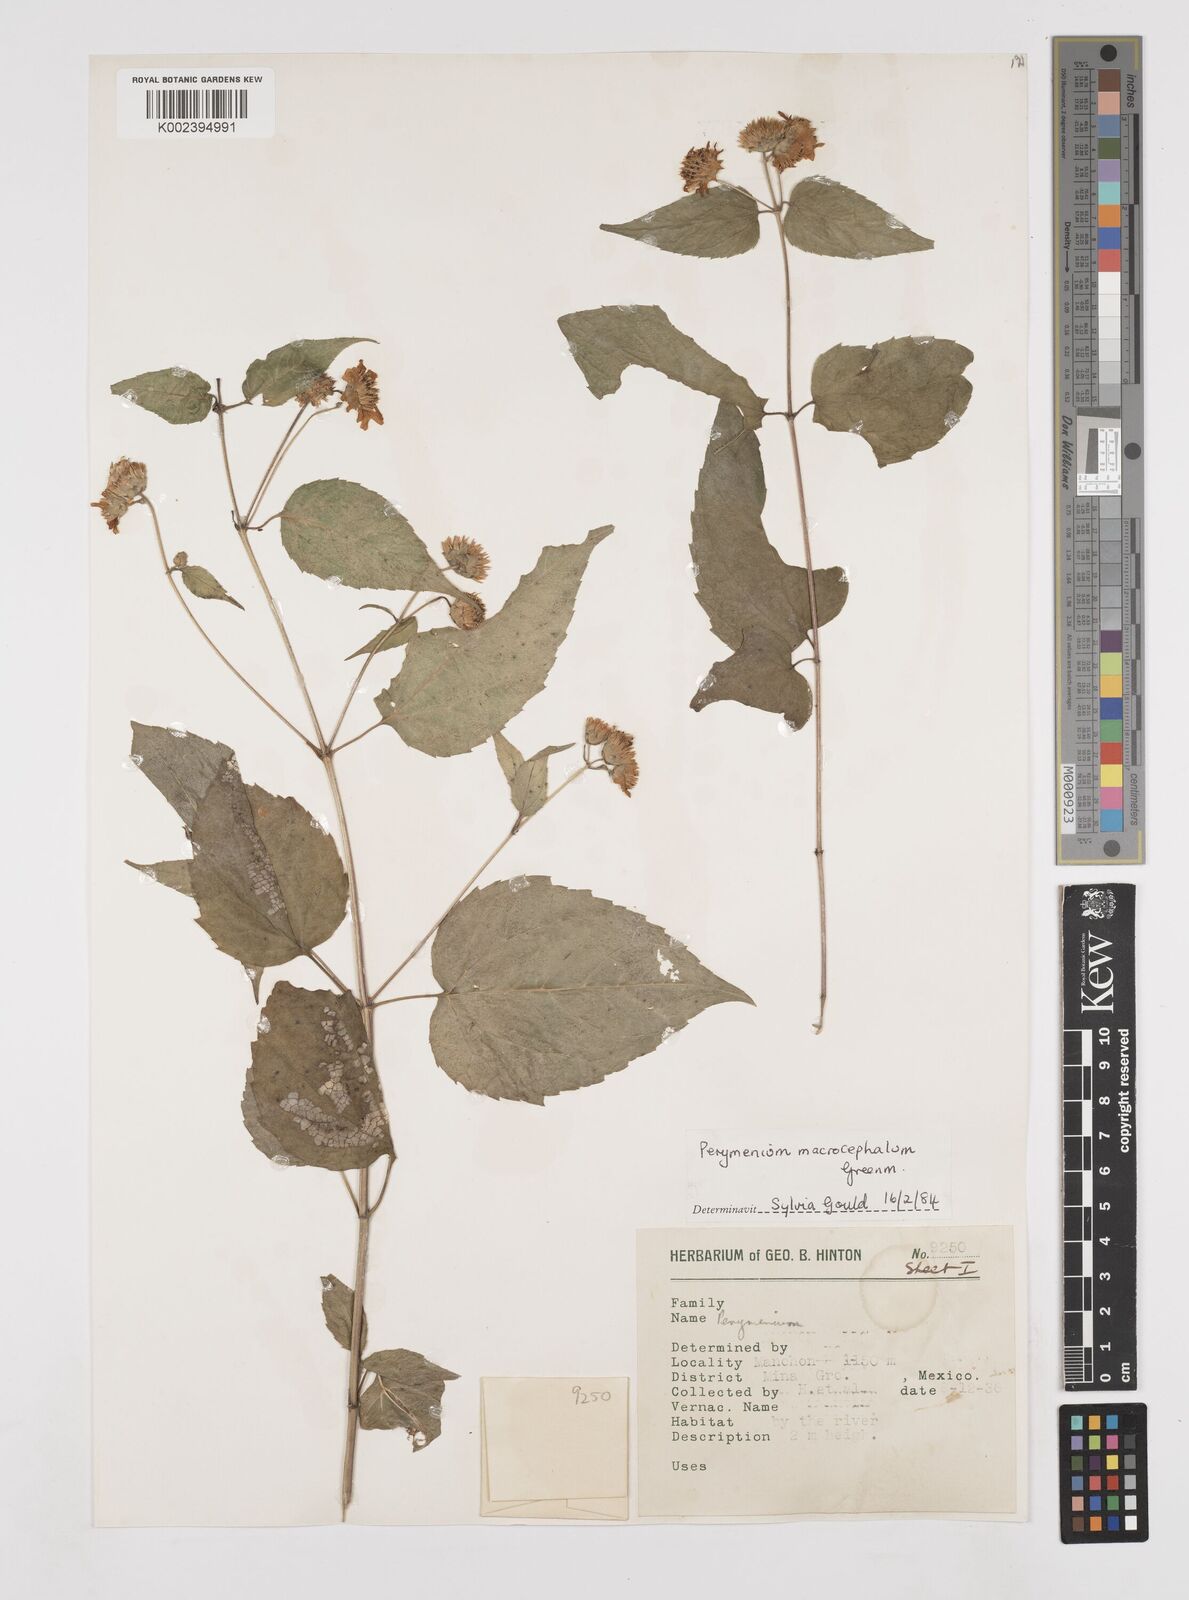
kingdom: Plantae
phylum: Tracheophyta
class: Magnoliopsida
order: Asterales
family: Asteraceae
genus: Perymenium
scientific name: Perymenium macrocephalum
